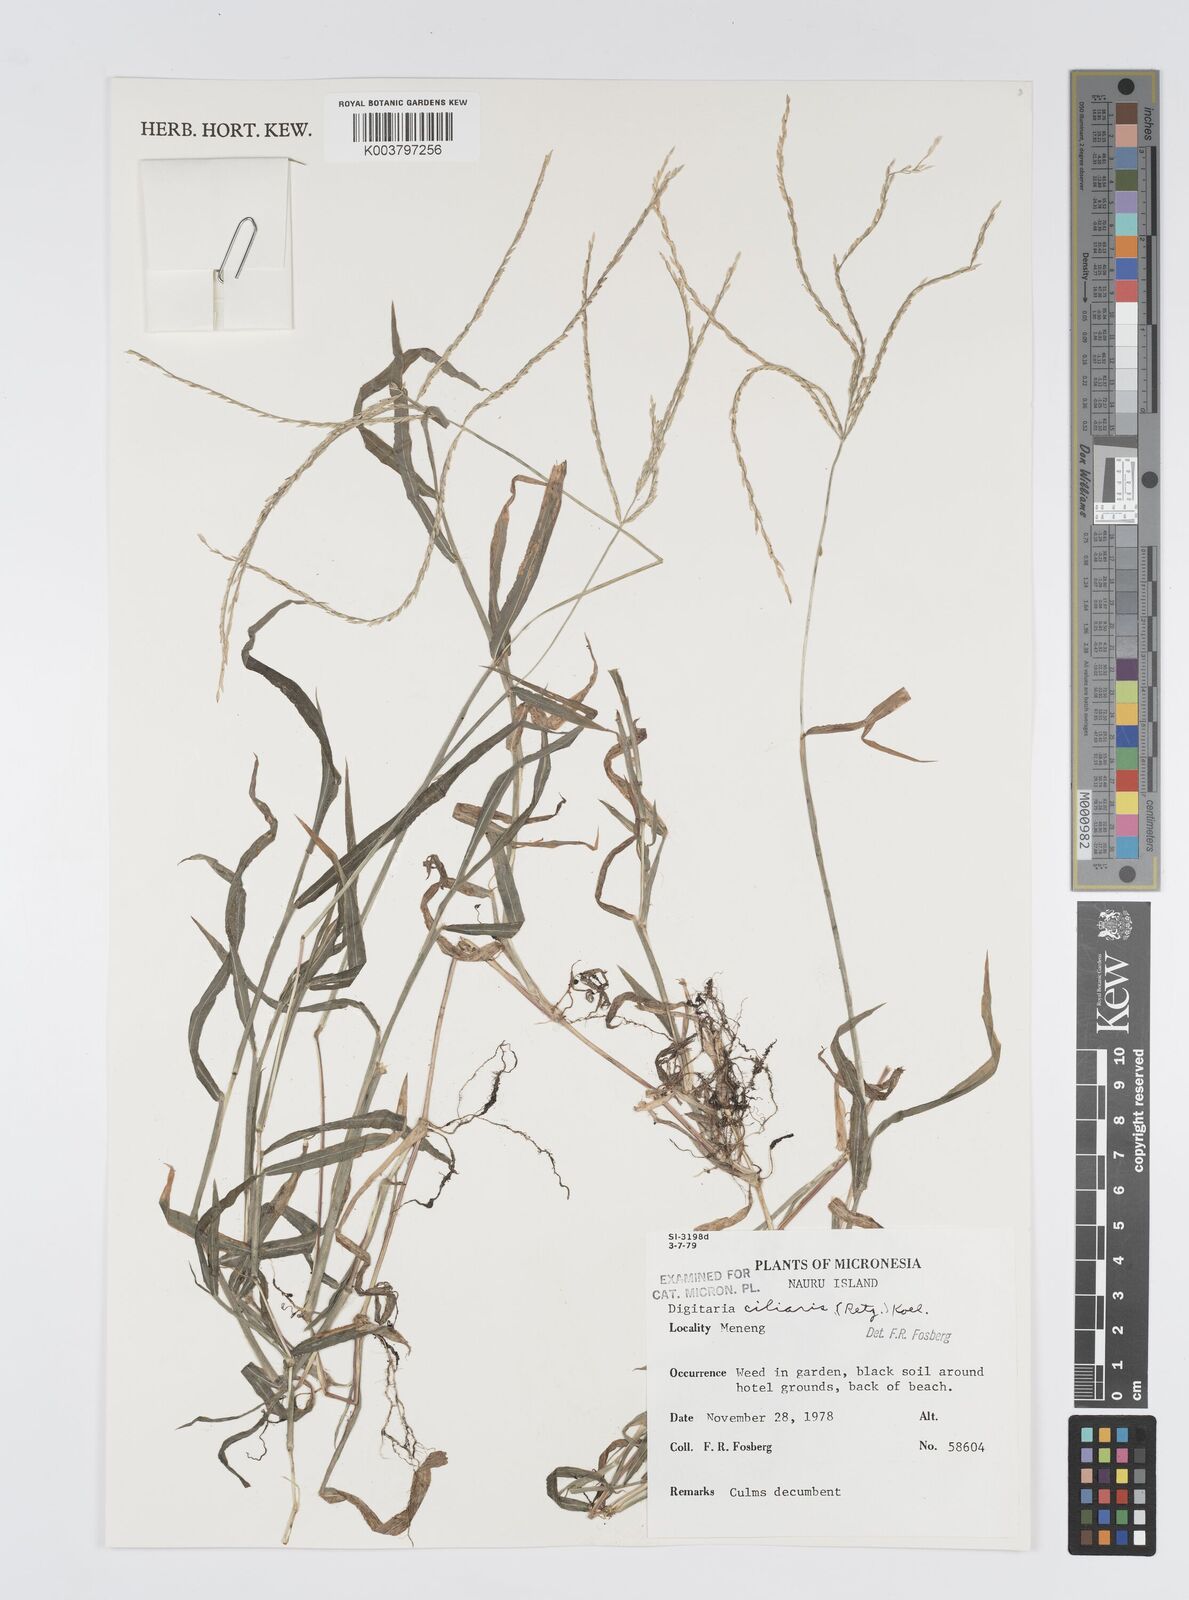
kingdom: Plantae
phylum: Tracheophyta
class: Liliopsida
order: Poales
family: Poaceae
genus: Digitaria
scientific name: Digitaria ciliaris
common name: Tropical finger-grass
